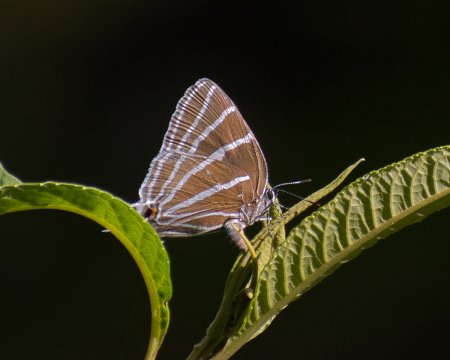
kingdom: Animalia
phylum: Arthropoda
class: Insecta
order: Lepidoptera
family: Lycaenidae
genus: Laothus
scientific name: Laothus barajo
